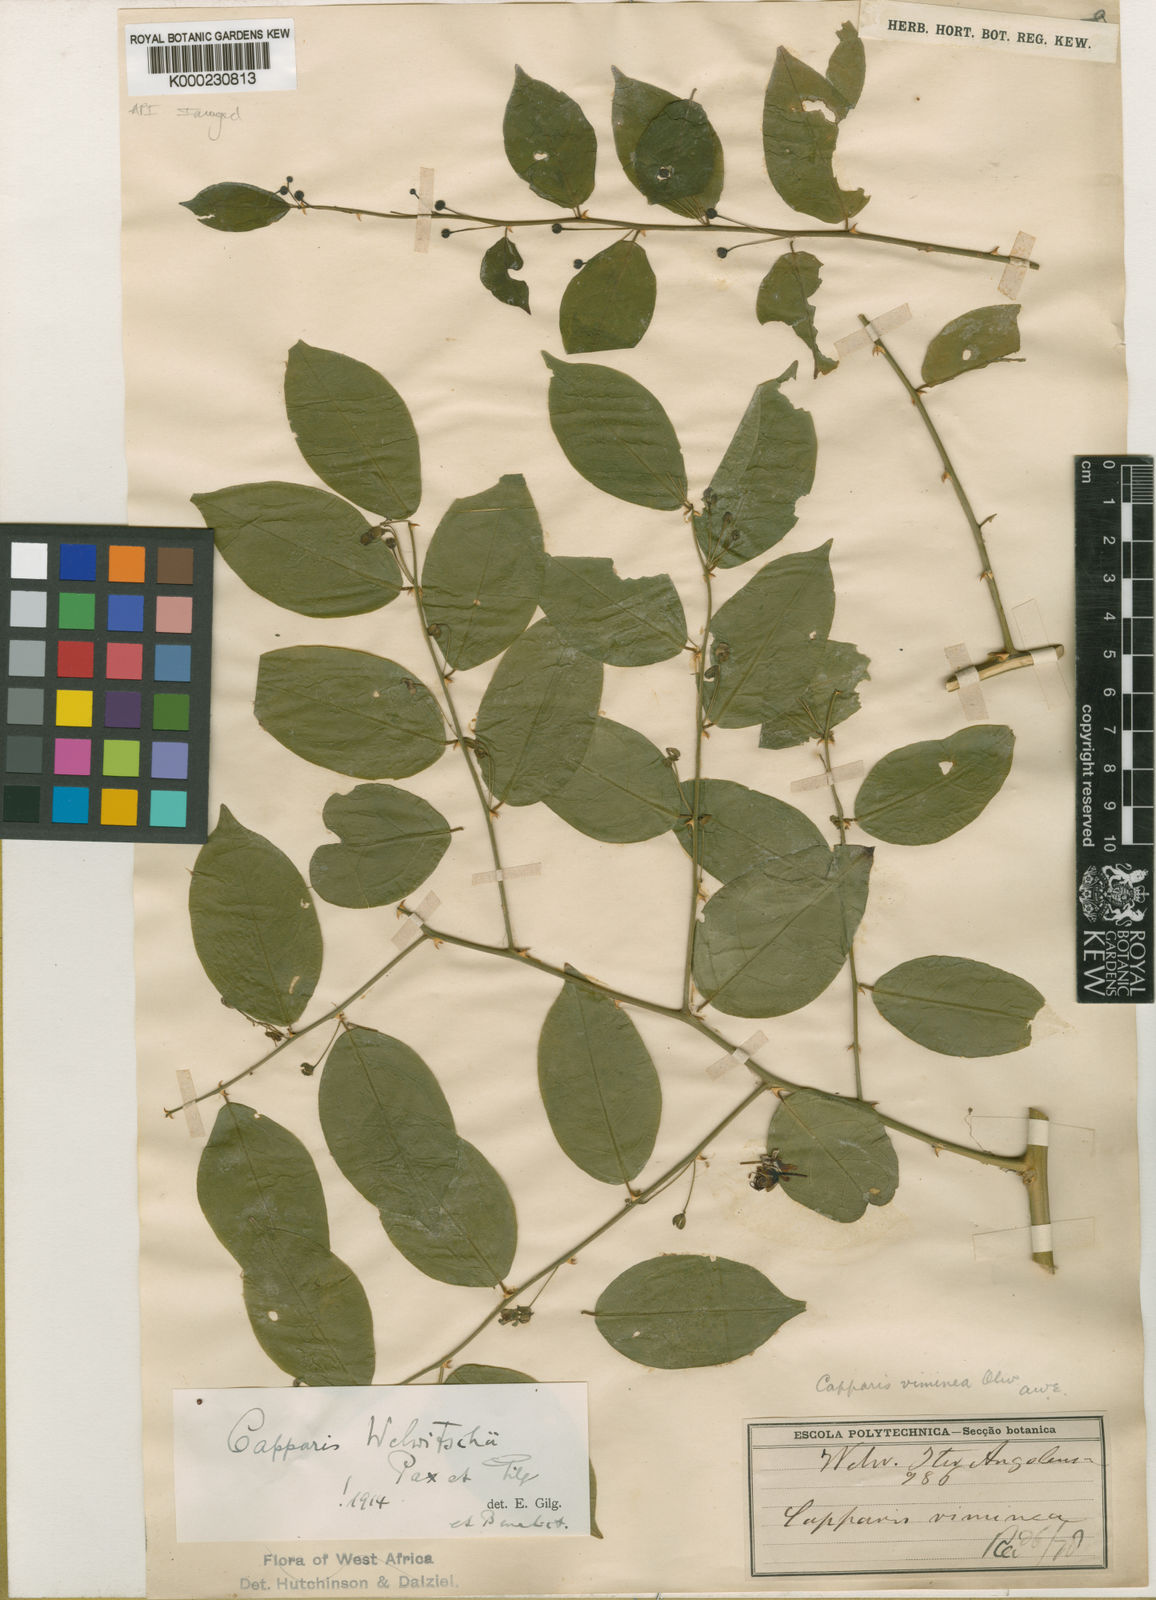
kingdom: Plantae
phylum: Tracheophyta
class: Magnoliopsida
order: Brassicales
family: Capparaceae
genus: Capparis
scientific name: Capparis
